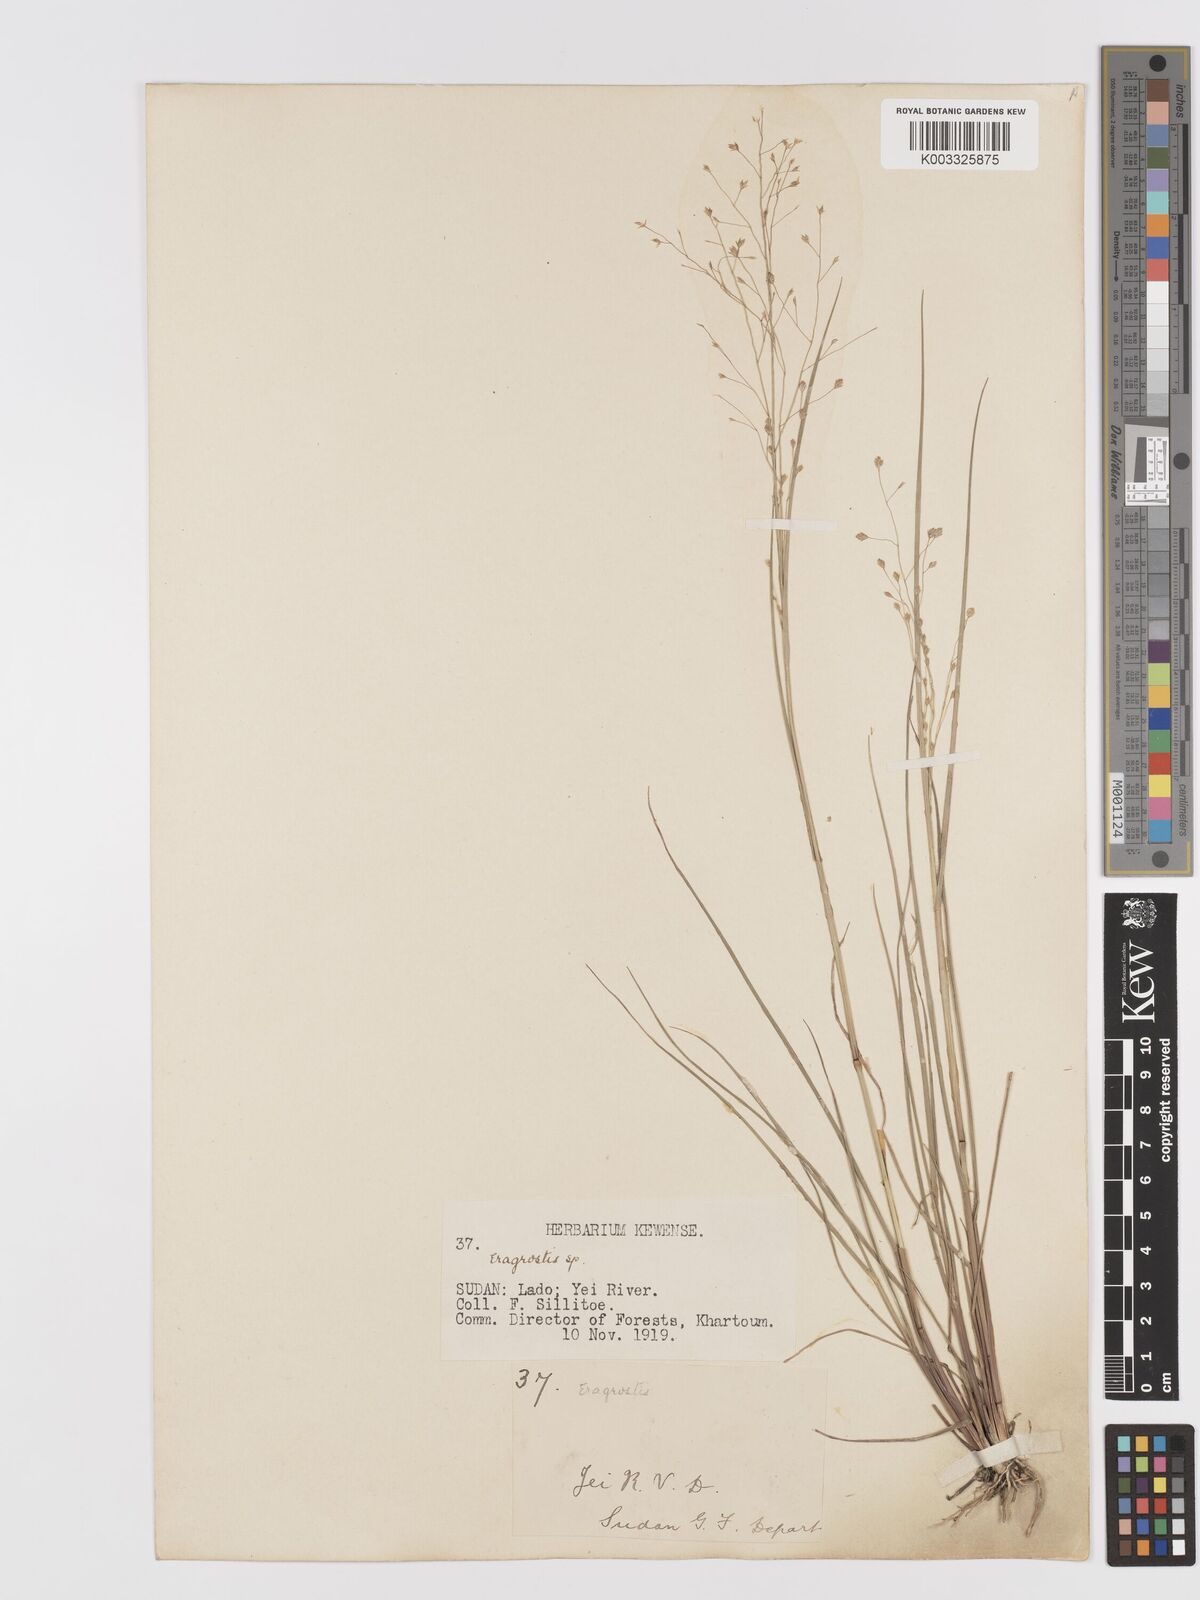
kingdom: Plantae
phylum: Tracheophyta
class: Liliopsida
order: Poales
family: Poaceae
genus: Eragrostis
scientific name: Eragrostis paniciformis
